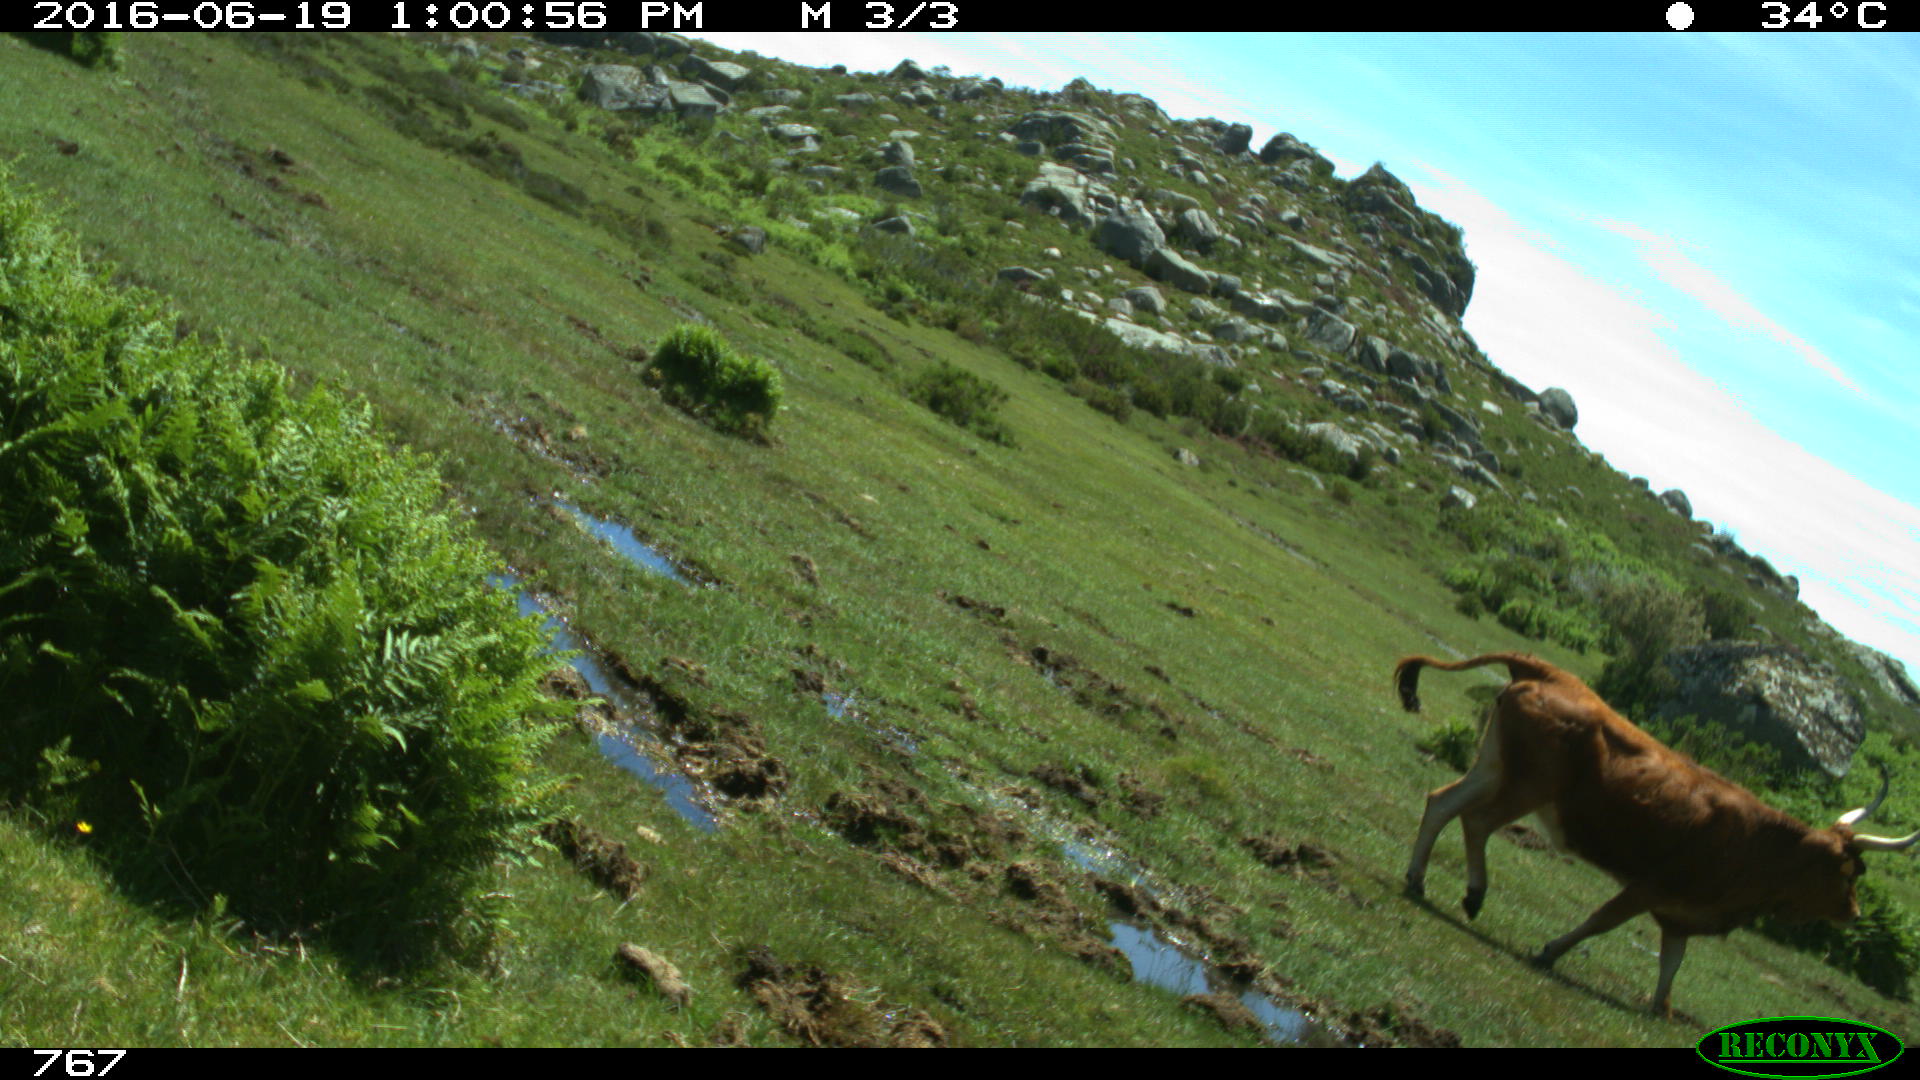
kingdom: Animalia
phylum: Chordata
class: Mammalia
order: Artiodactyla
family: Bovidae
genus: Bos
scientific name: Bos taurus
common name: Domesticated cattle
